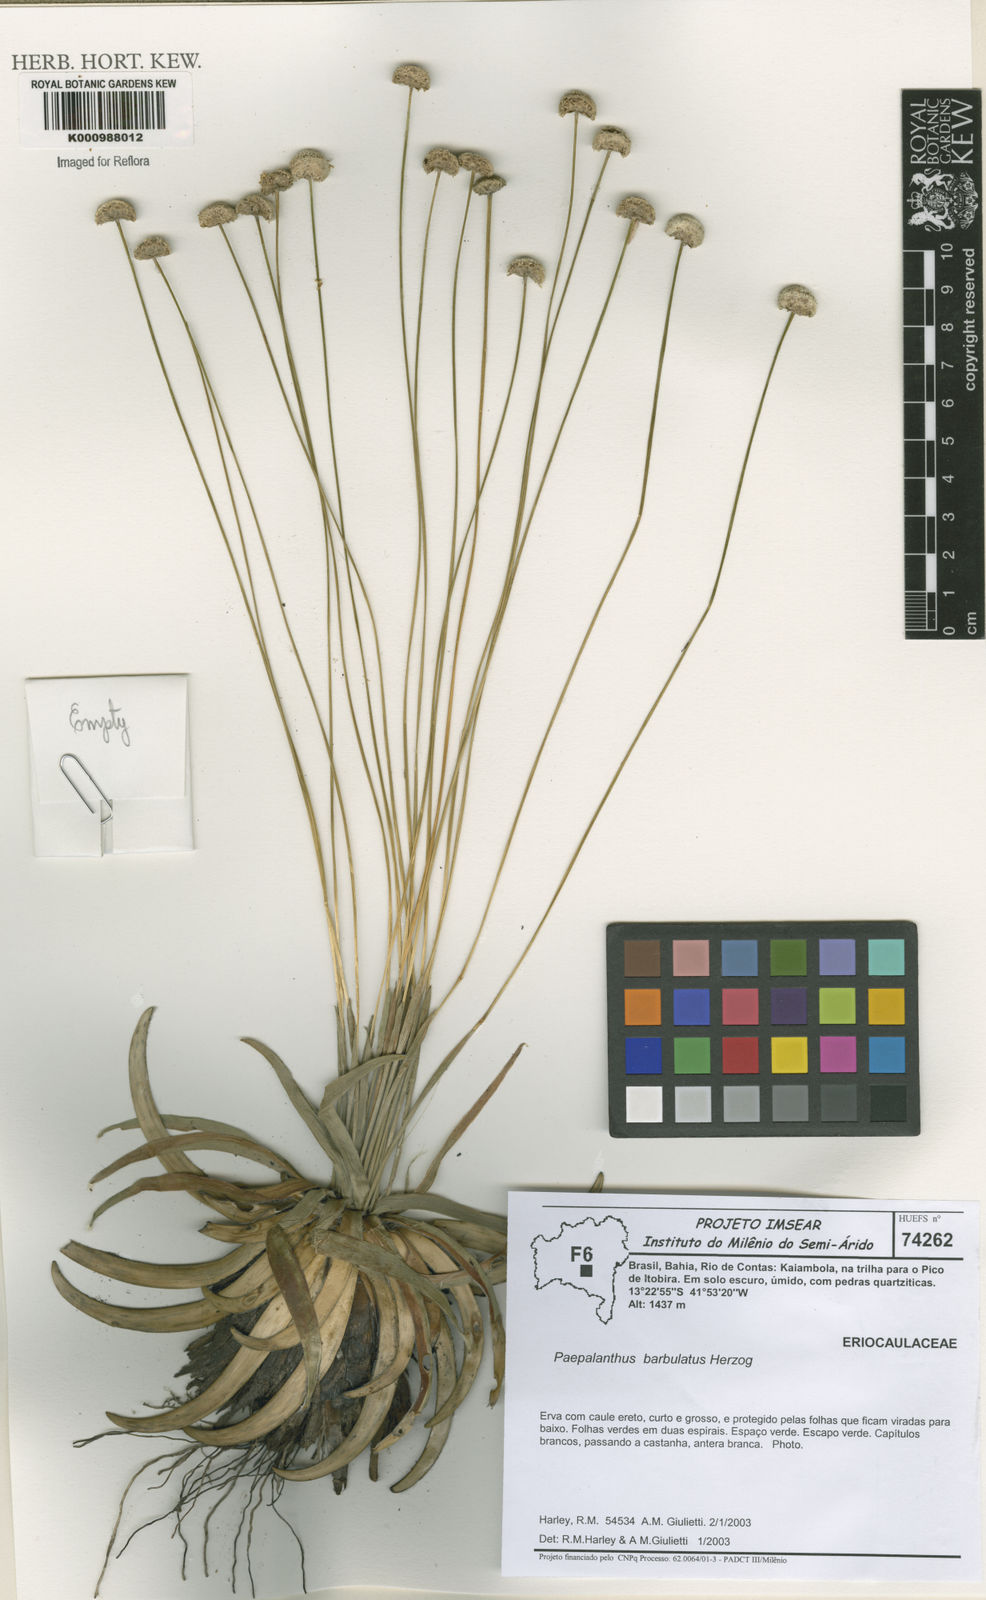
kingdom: Plantae
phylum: Tracheophyta
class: Liliopsida
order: Poales
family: Eriocaulaceae
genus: Paepalanthus
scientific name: Paepalanthus coutoensis
